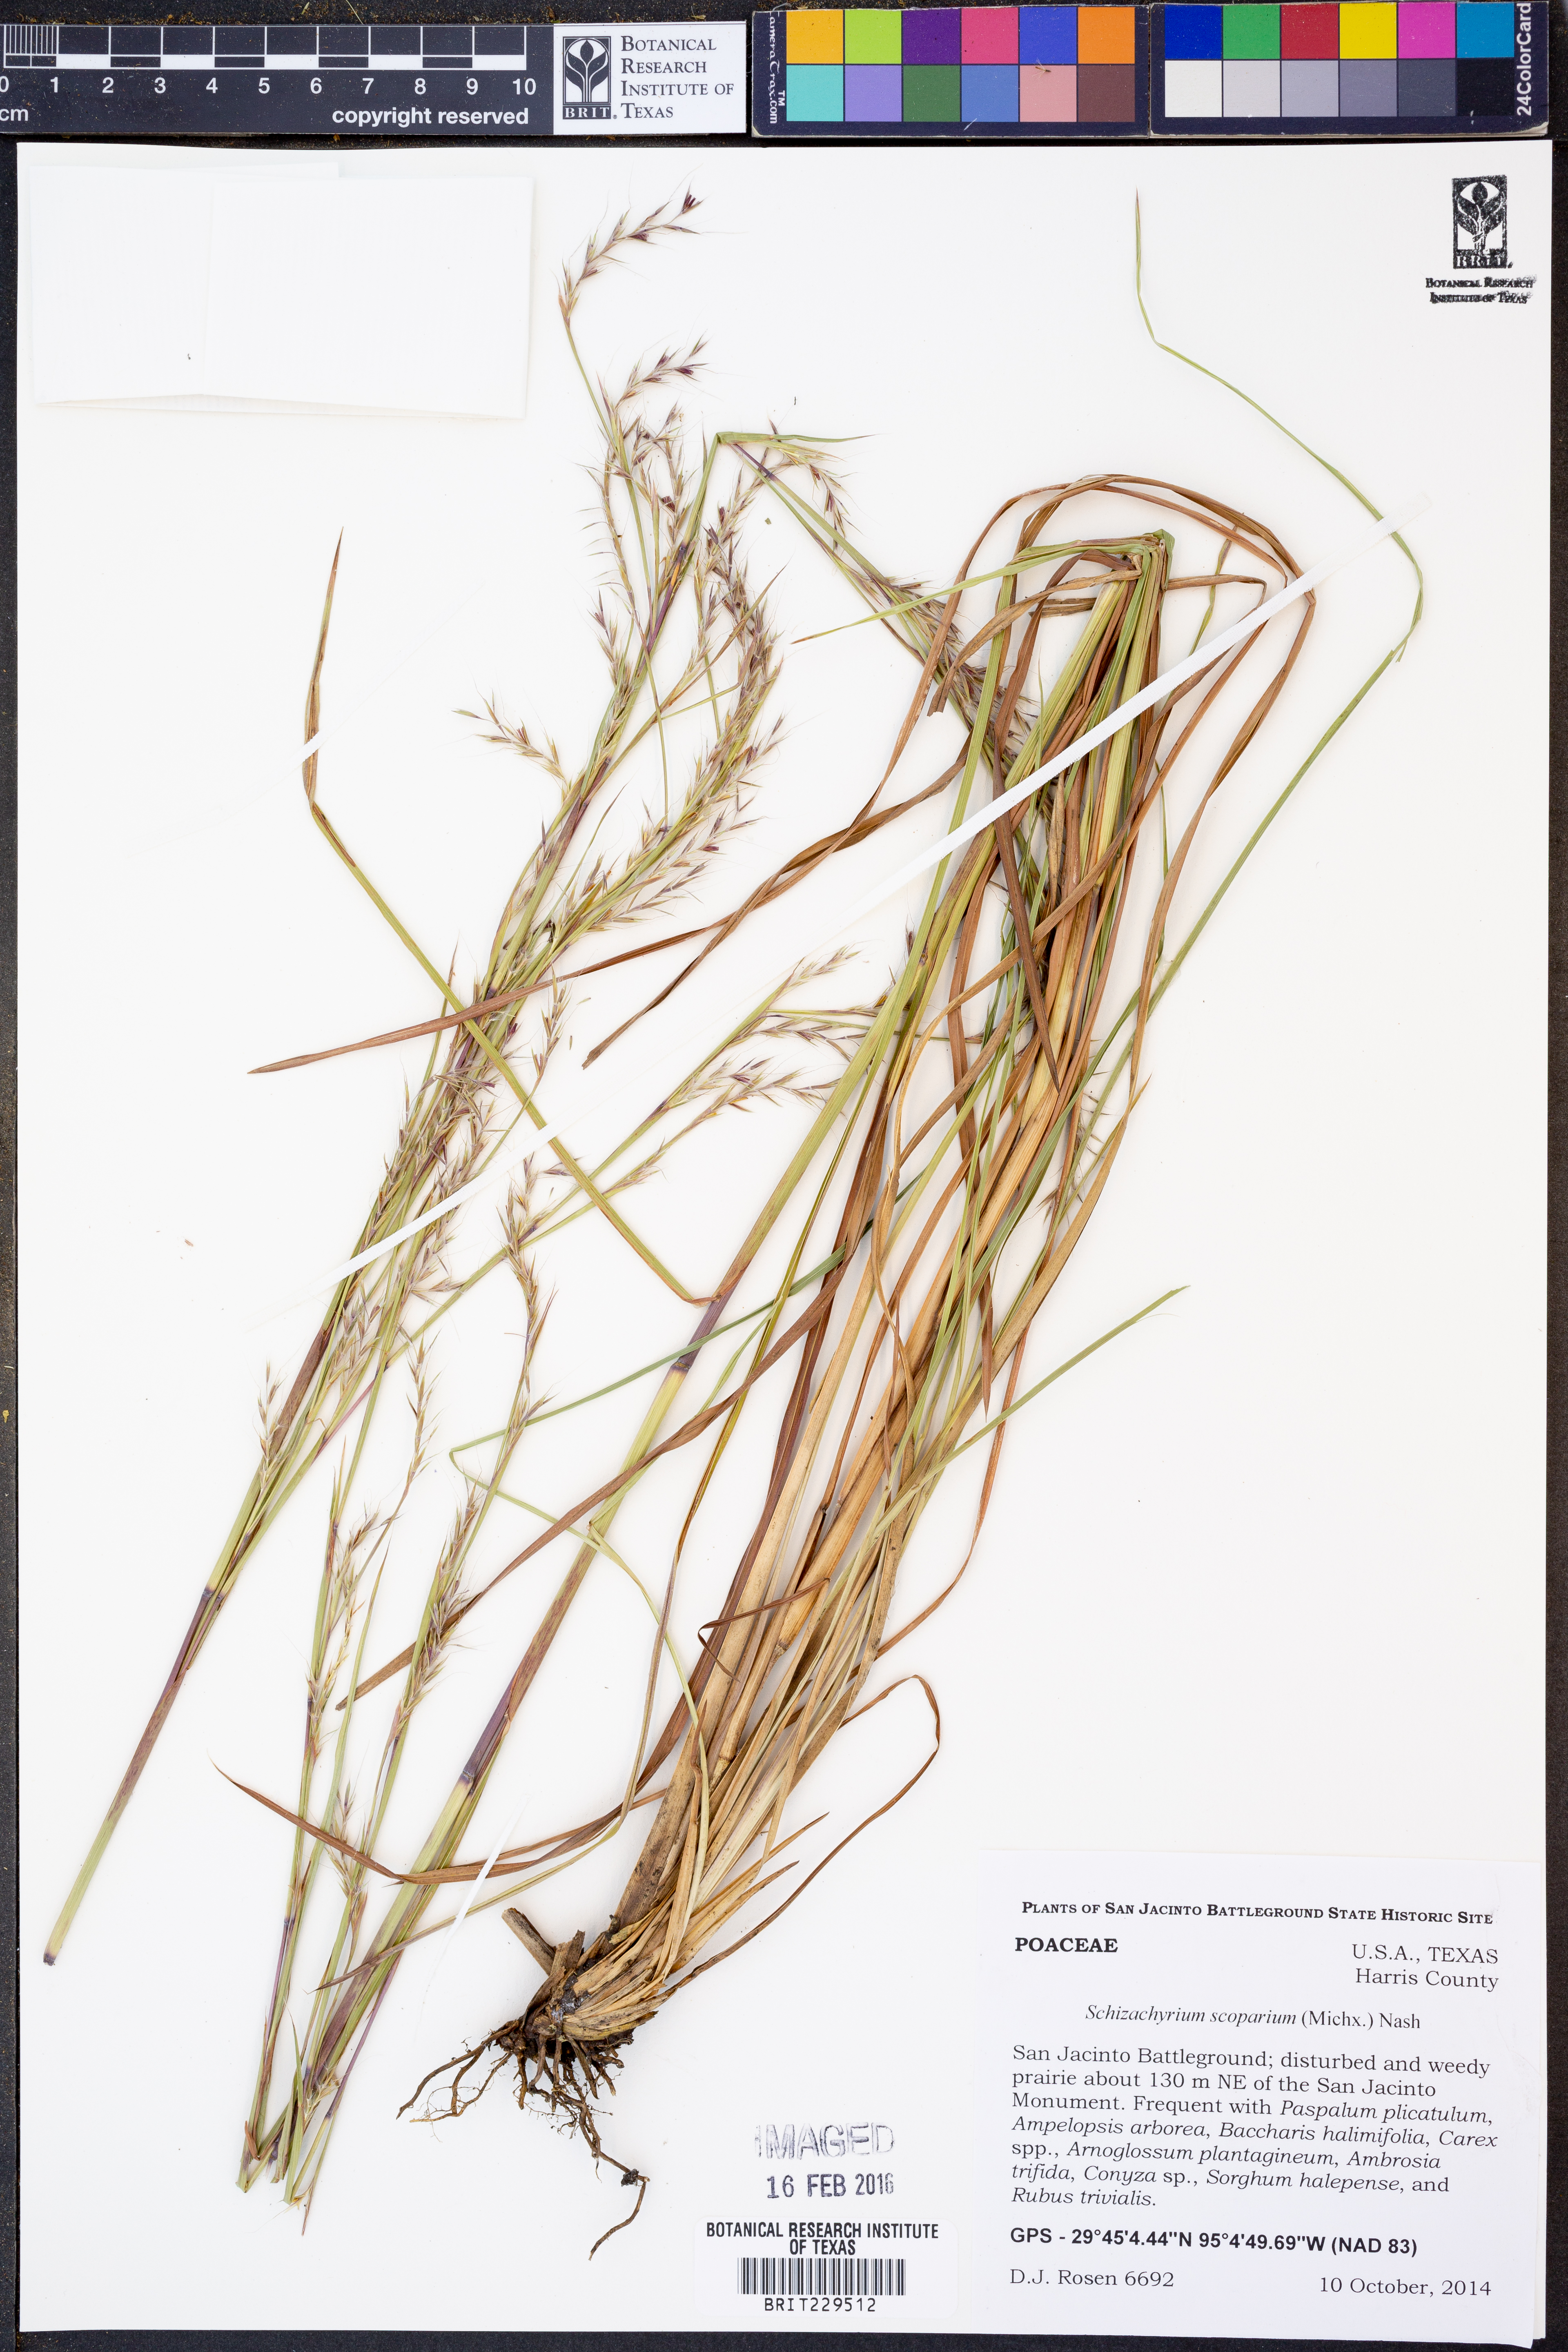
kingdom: Plantae
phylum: Tracheophyta
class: Liliopsida
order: Poales
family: Poaceae
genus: Schizachyrium
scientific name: Schizachyrium scoparium
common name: Little bluestem
